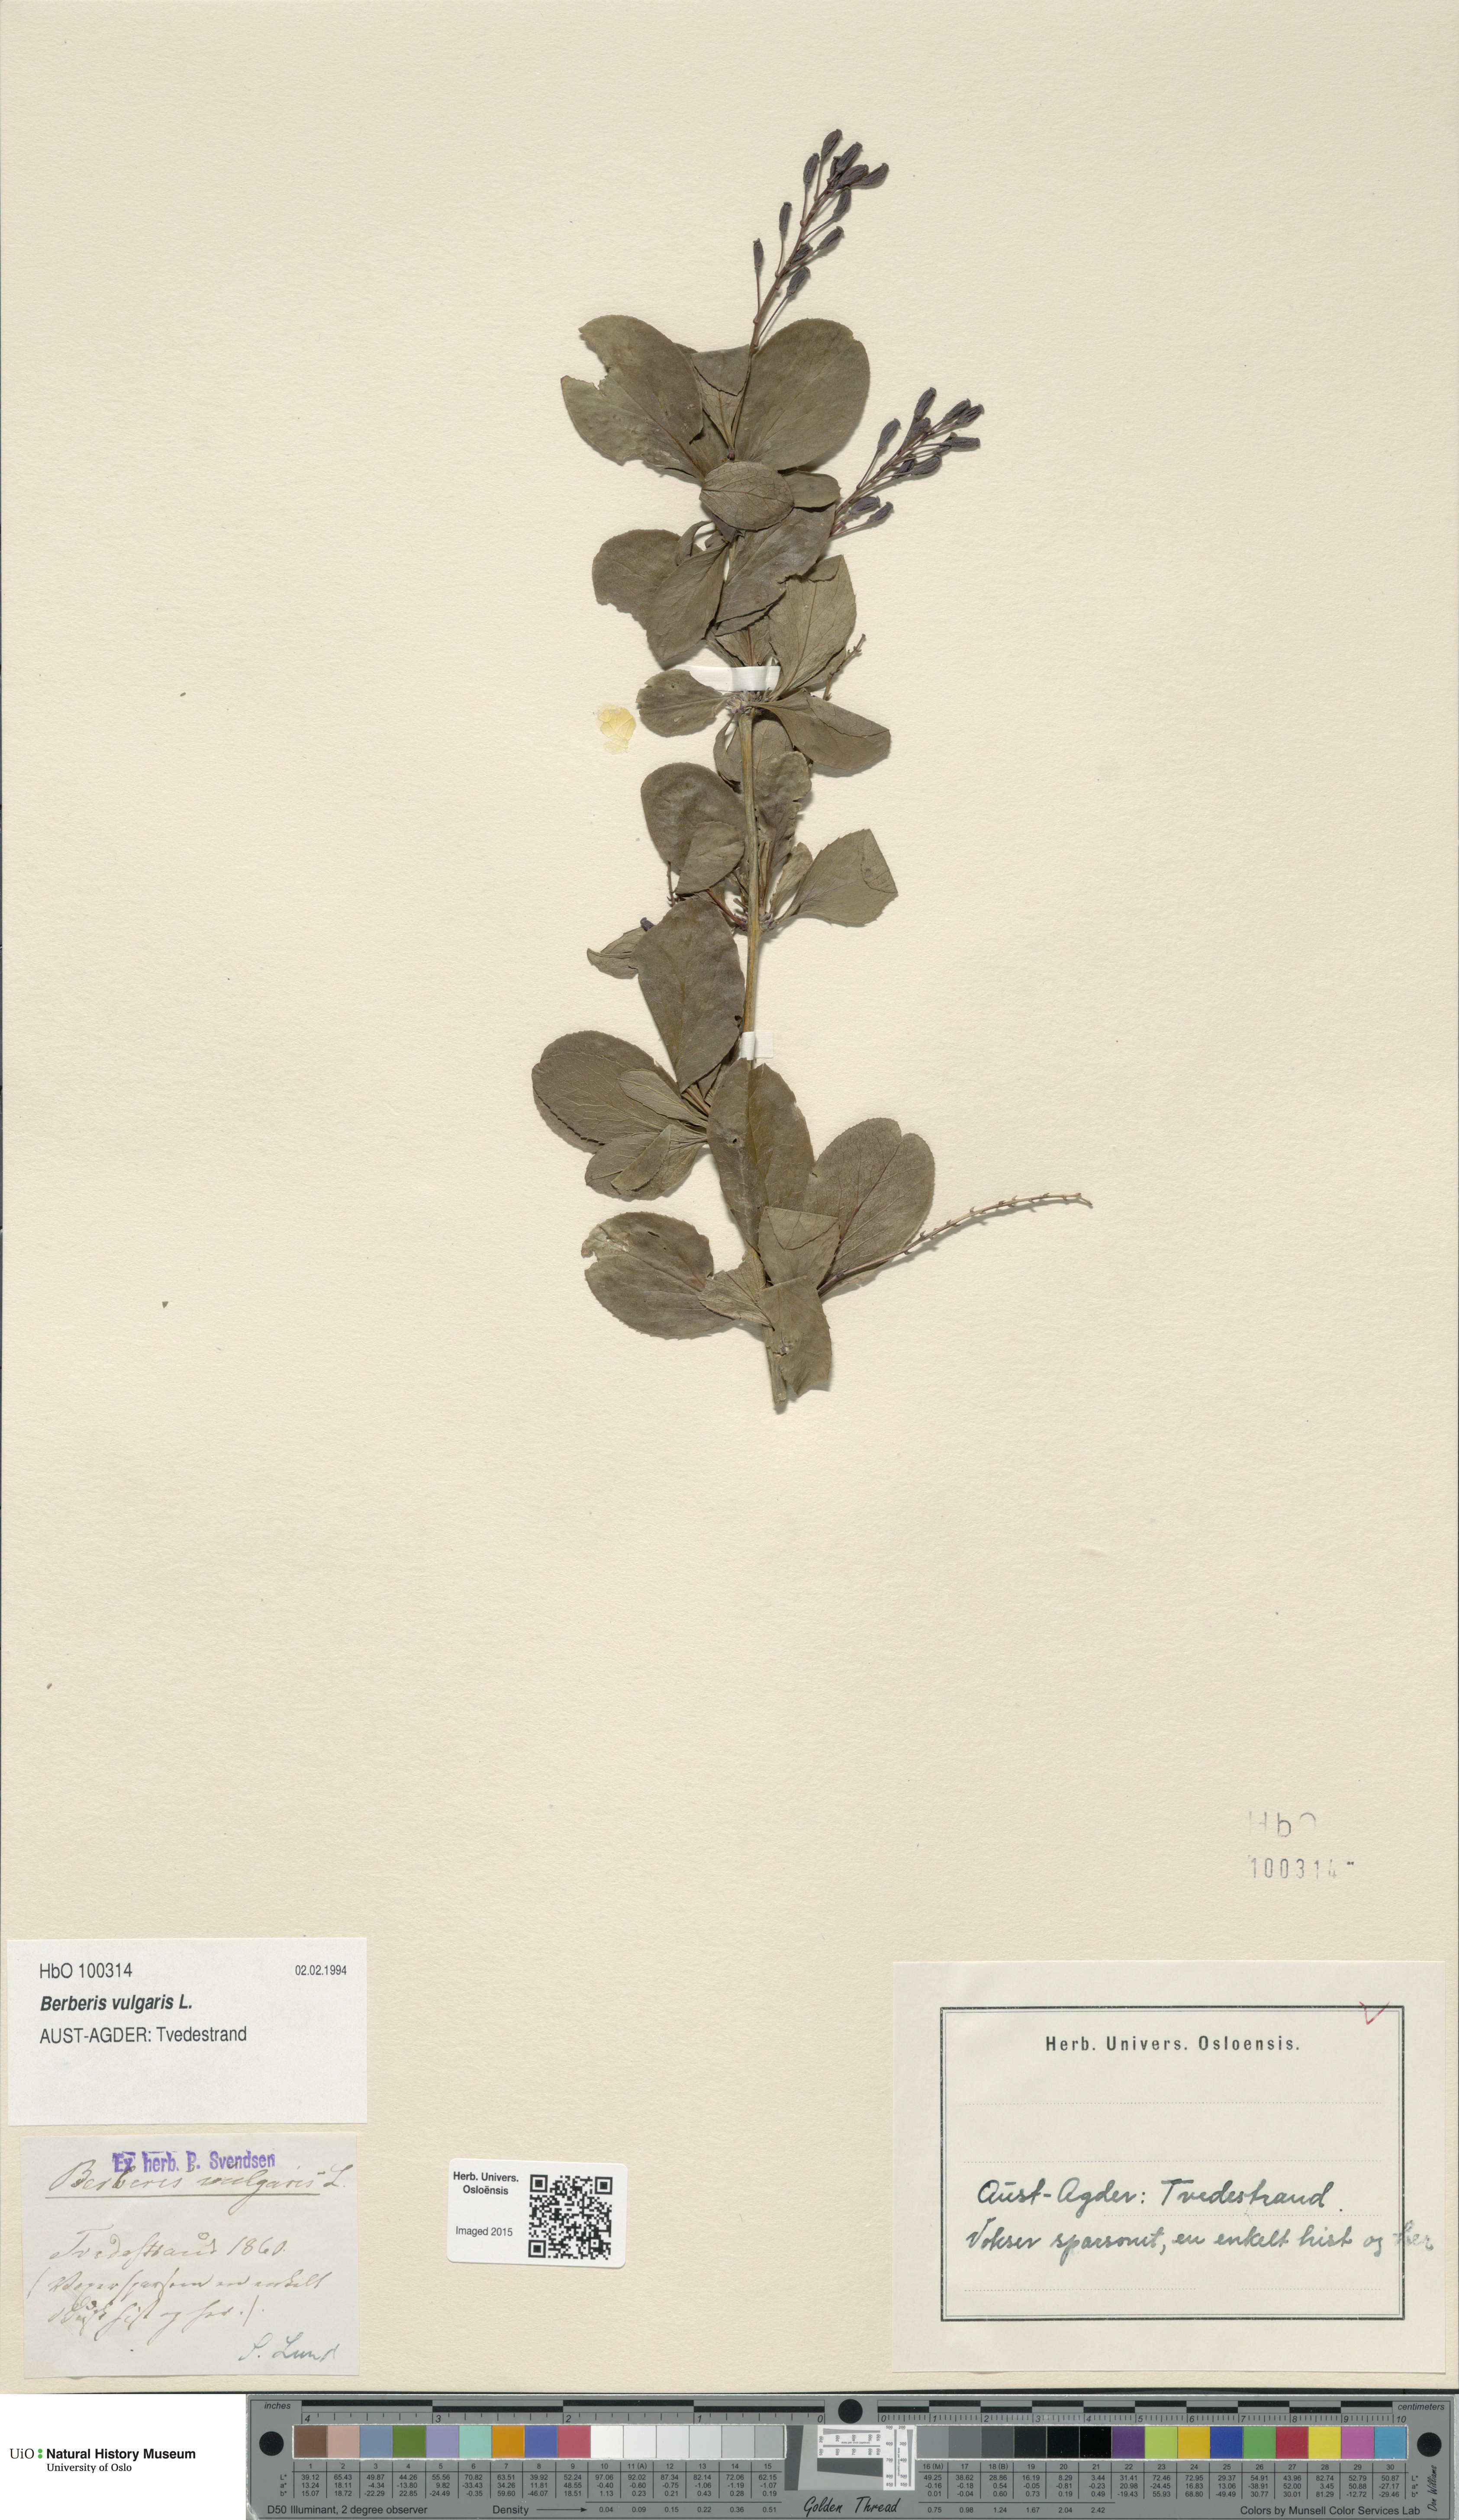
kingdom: Plantae
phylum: Tracheophyta
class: Magnoliopsida
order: Ranunculales
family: Berberidaceae
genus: Berberis
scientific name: Berberis vulgaris
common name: Barberry
